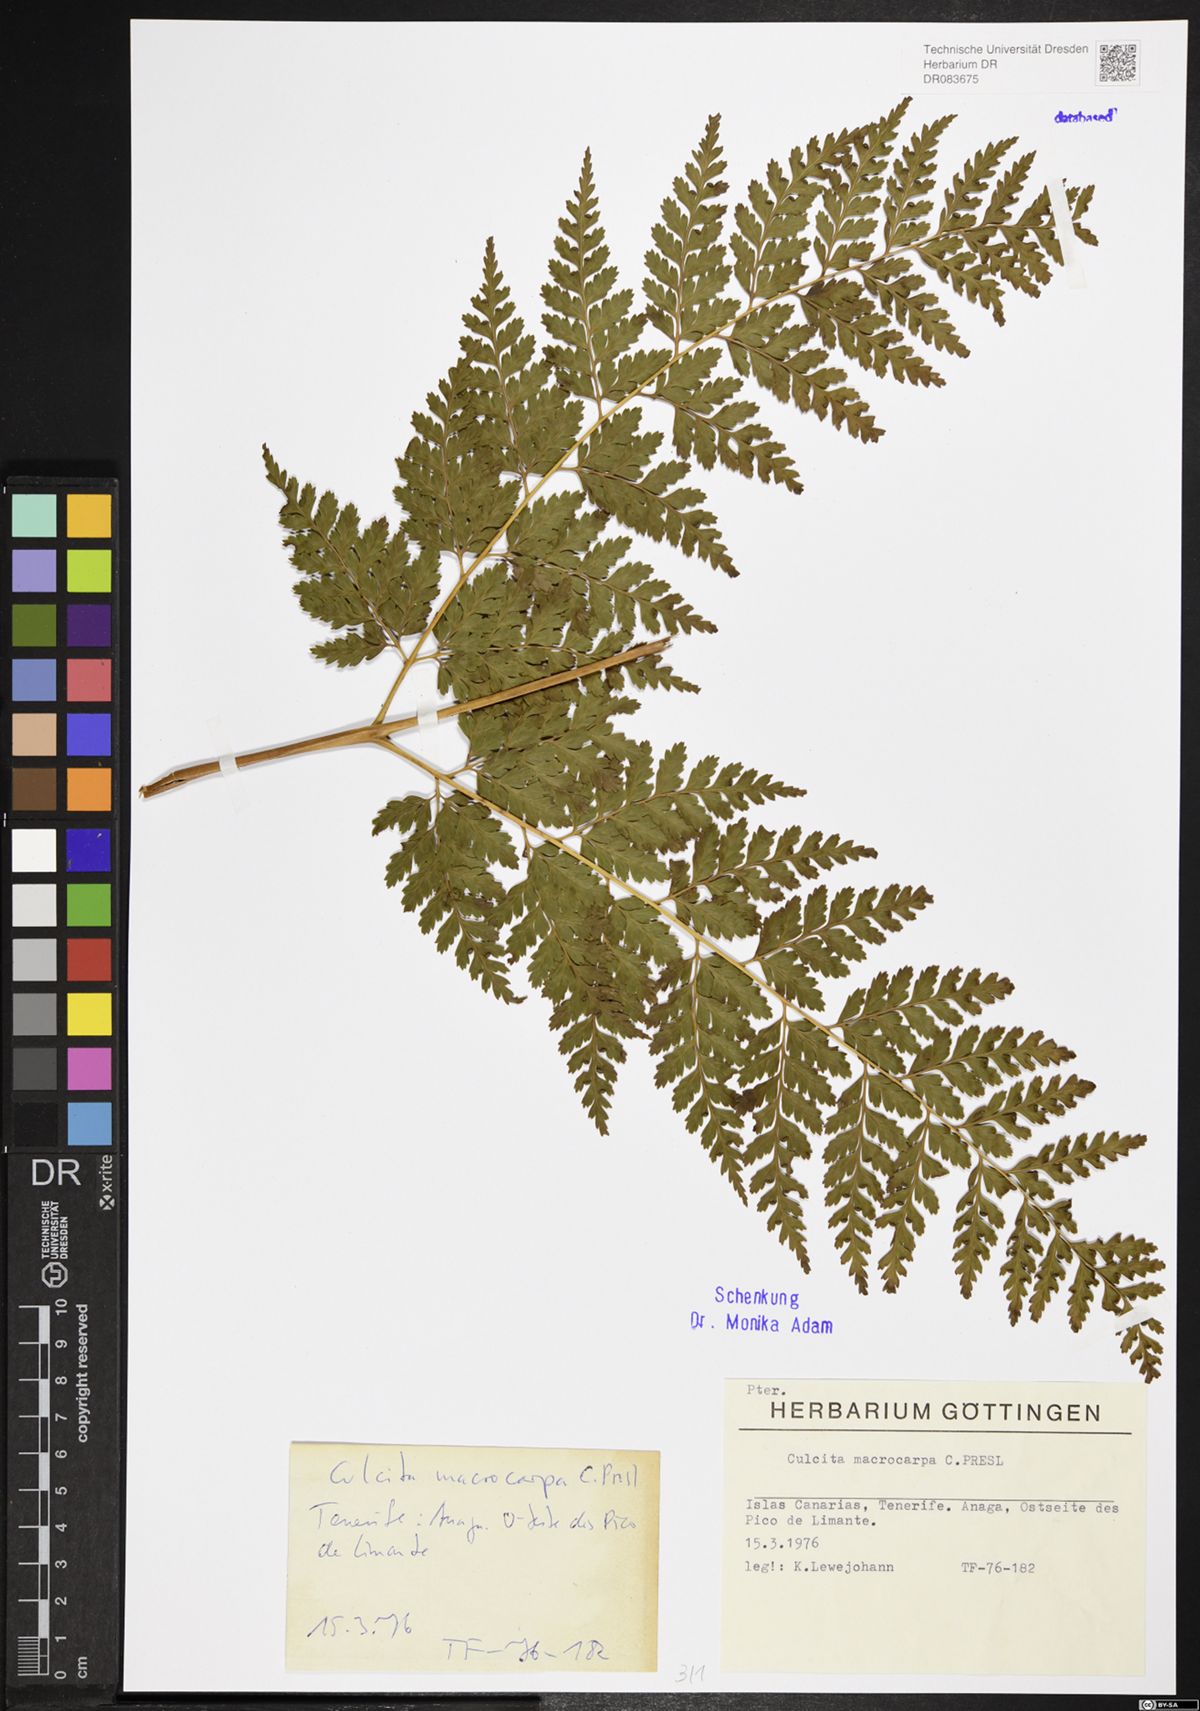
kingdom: Plantae
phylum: Tracheophyta
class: Polypodiopsida
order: Cyatheales
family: Culcitaceae
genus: Culcita
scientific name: Culcita macrocarpa
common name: Woolly tree fern
